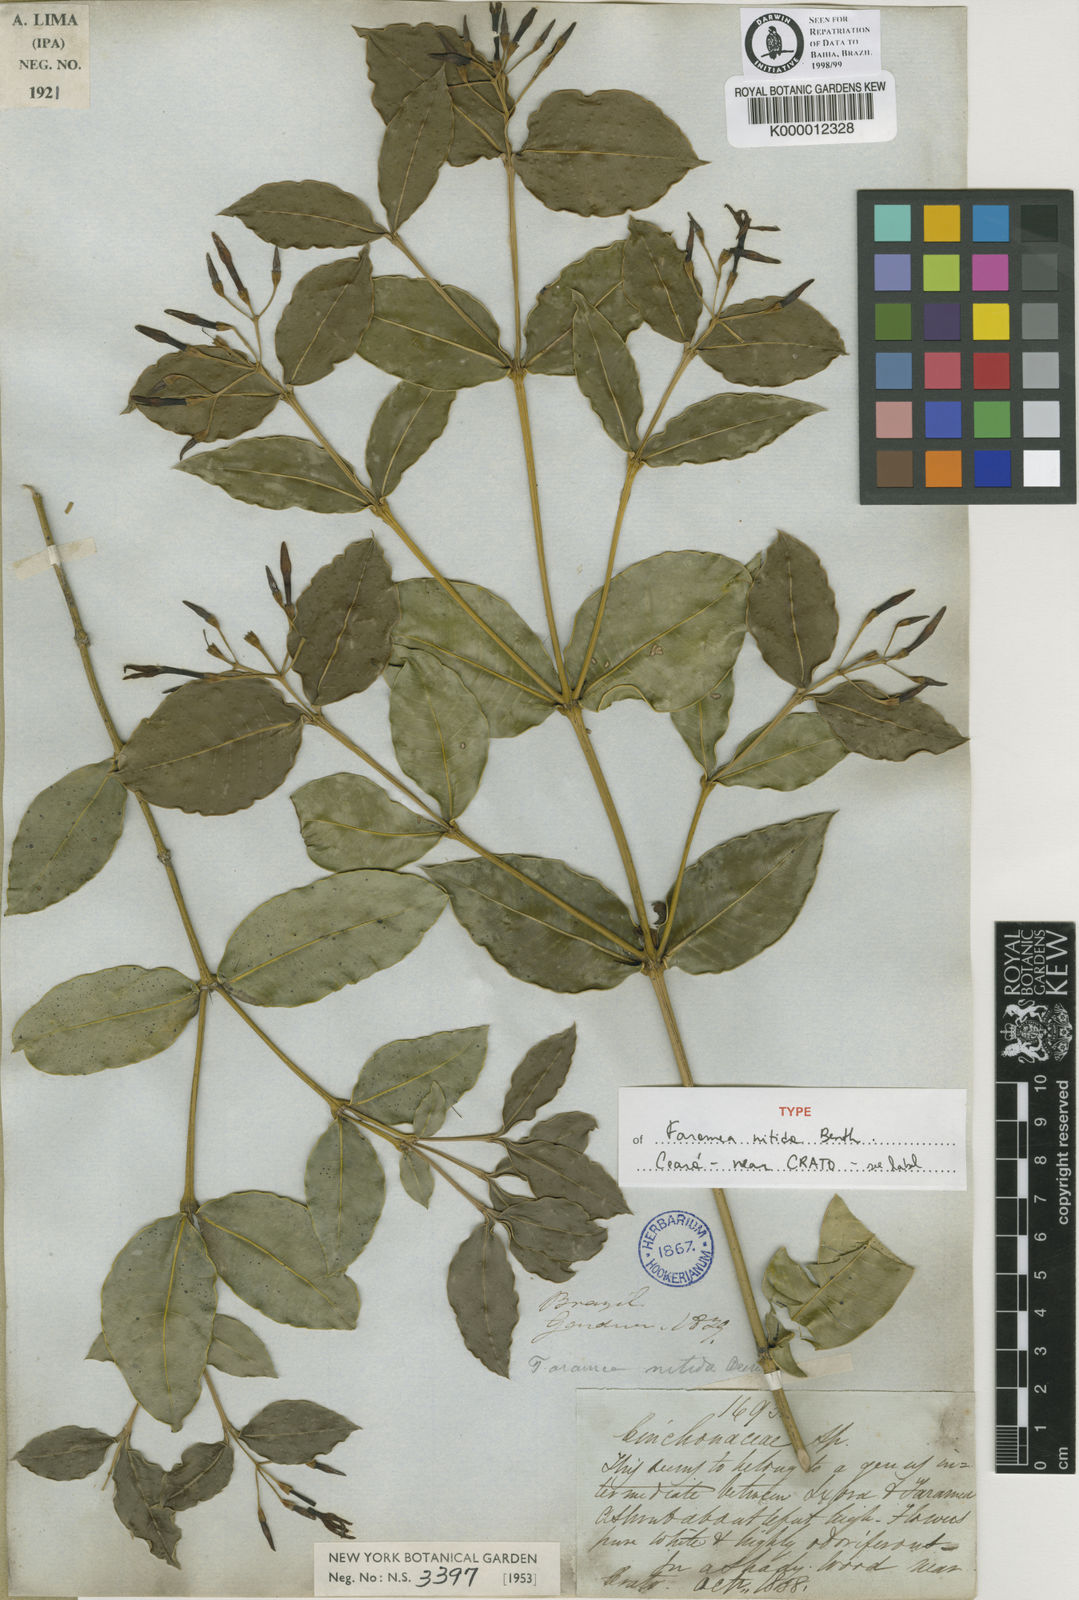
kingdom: Plantae
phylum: Tracheophyta
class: Magnoliopsida
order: Gentianales
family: Rubiaceae
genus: Faramea
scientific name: Faramea nitida
